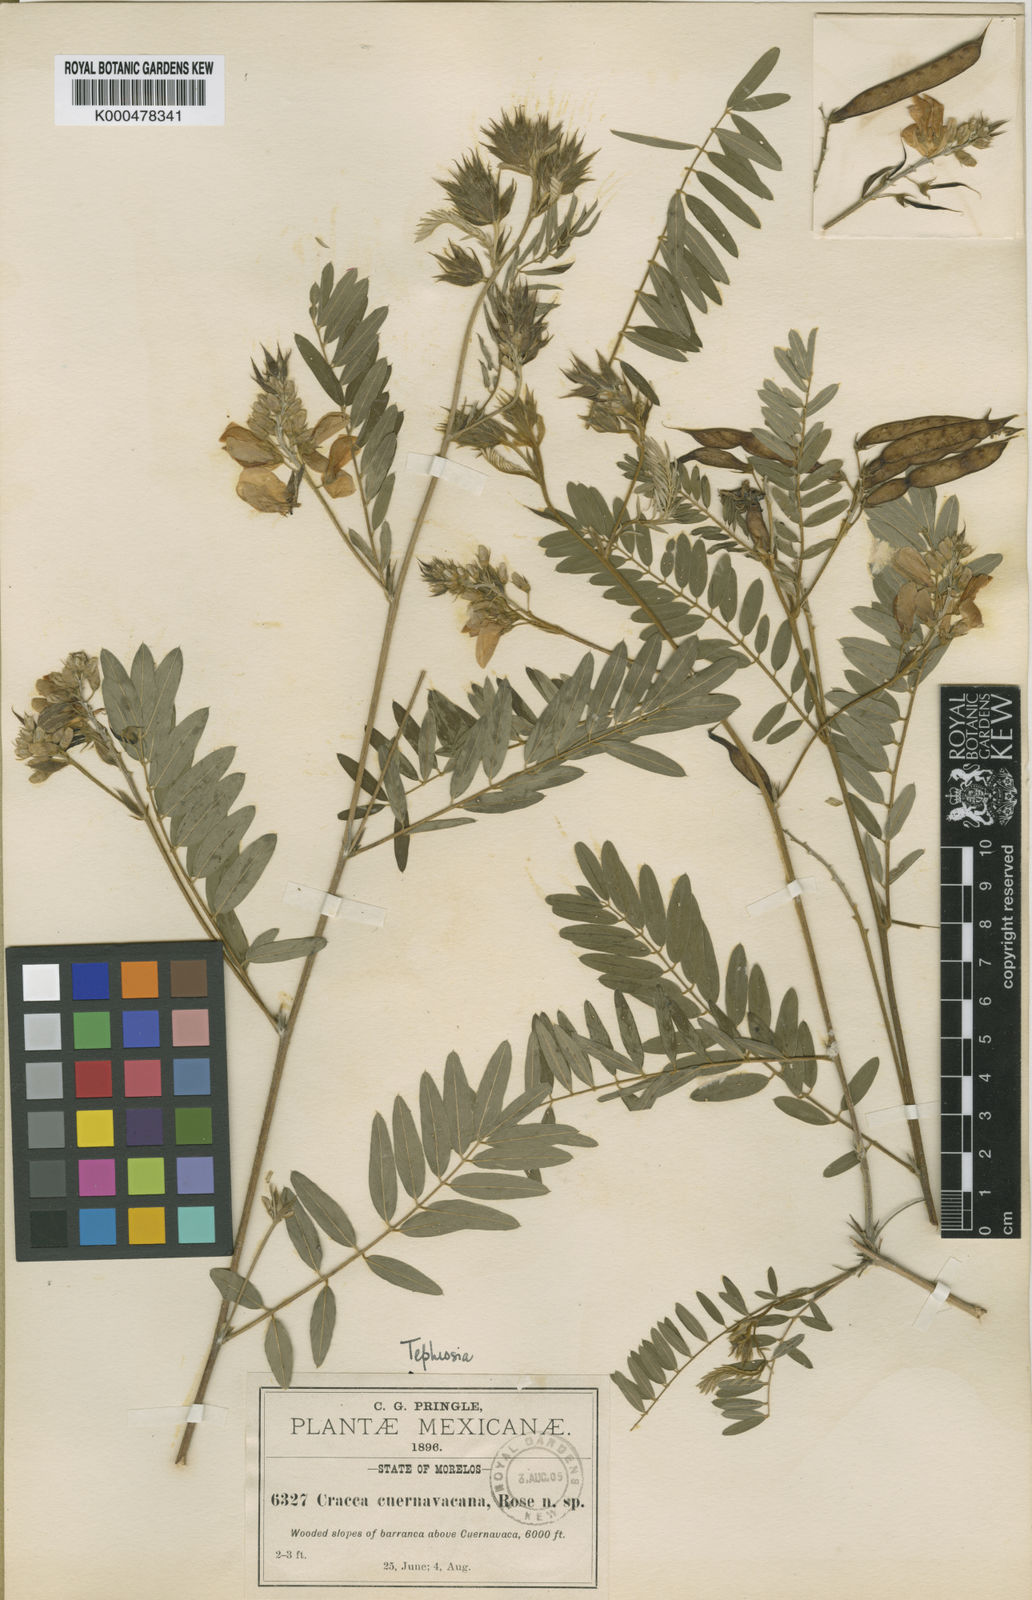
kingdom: Plantae
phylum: Tracheophyta
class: Magnoliopsida
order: Fabales
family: Fabaceae
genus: Tephrosia
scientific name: Tephrosia cuernavacana
